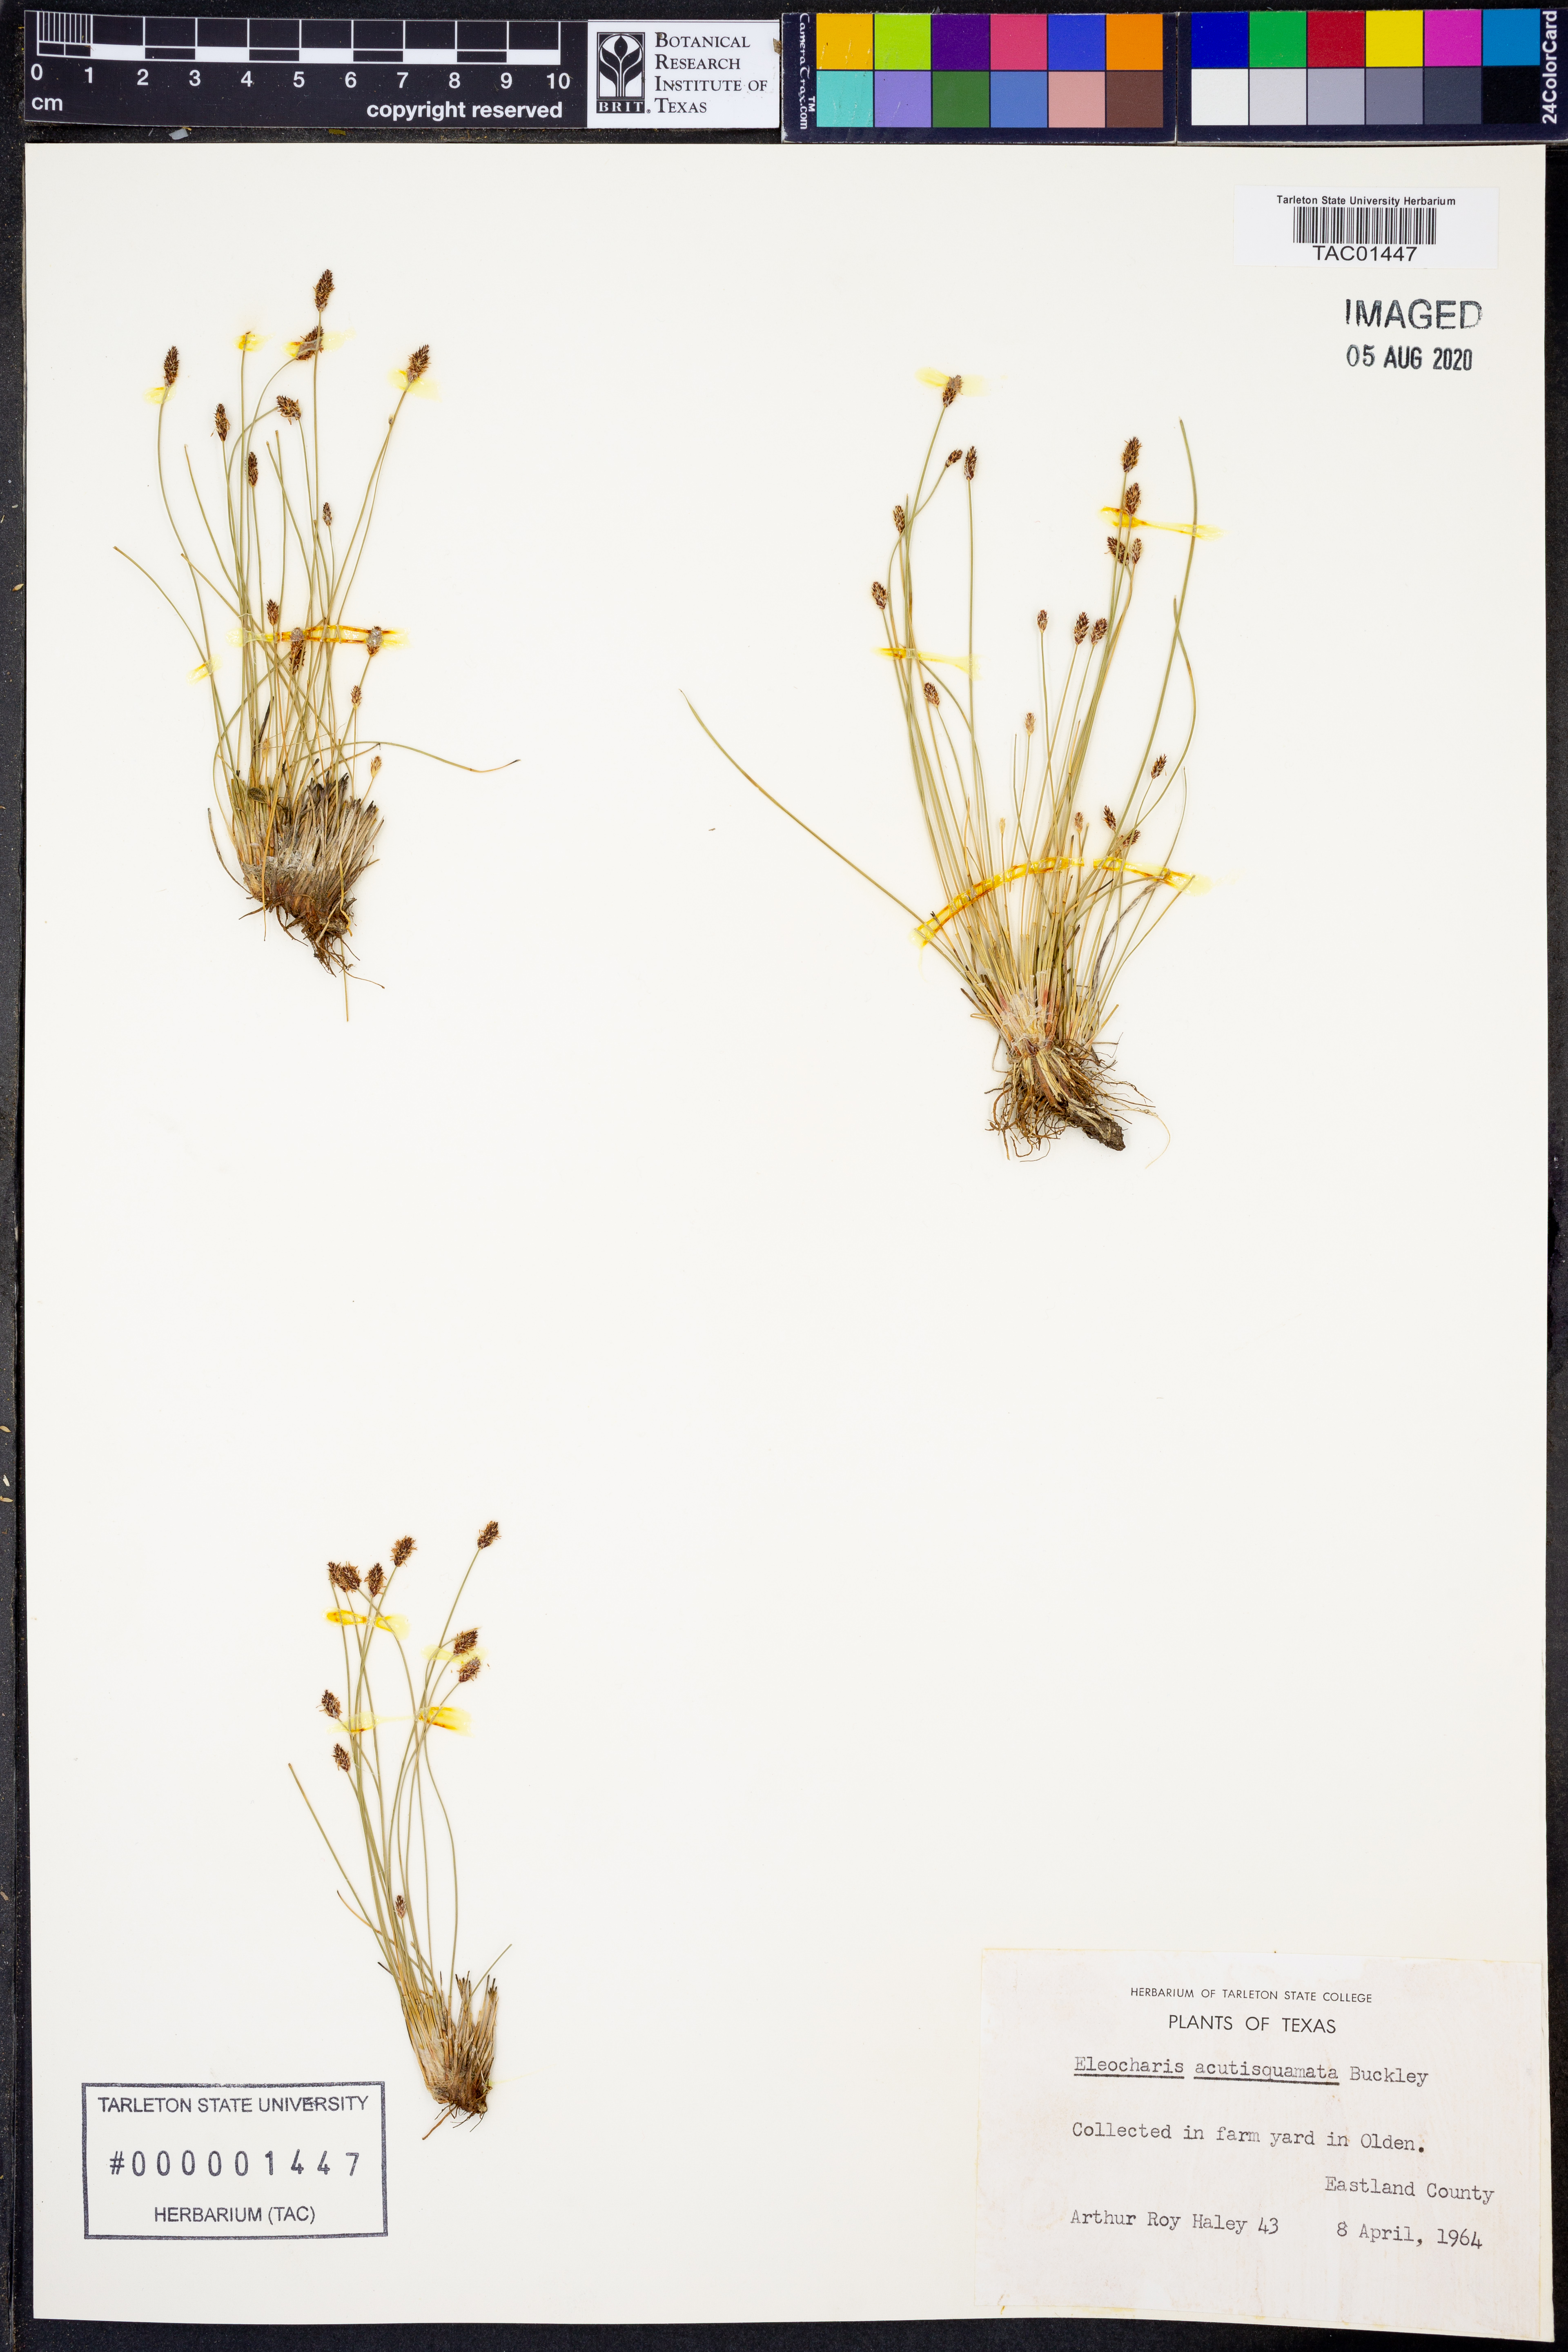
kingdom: Plantae
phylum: Tracheophyta
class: Liliopsida
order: Poales
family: Cyperaceae
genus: Eleocharis
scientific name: Eleocharis compressa
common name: Flat-stem spike-rush
